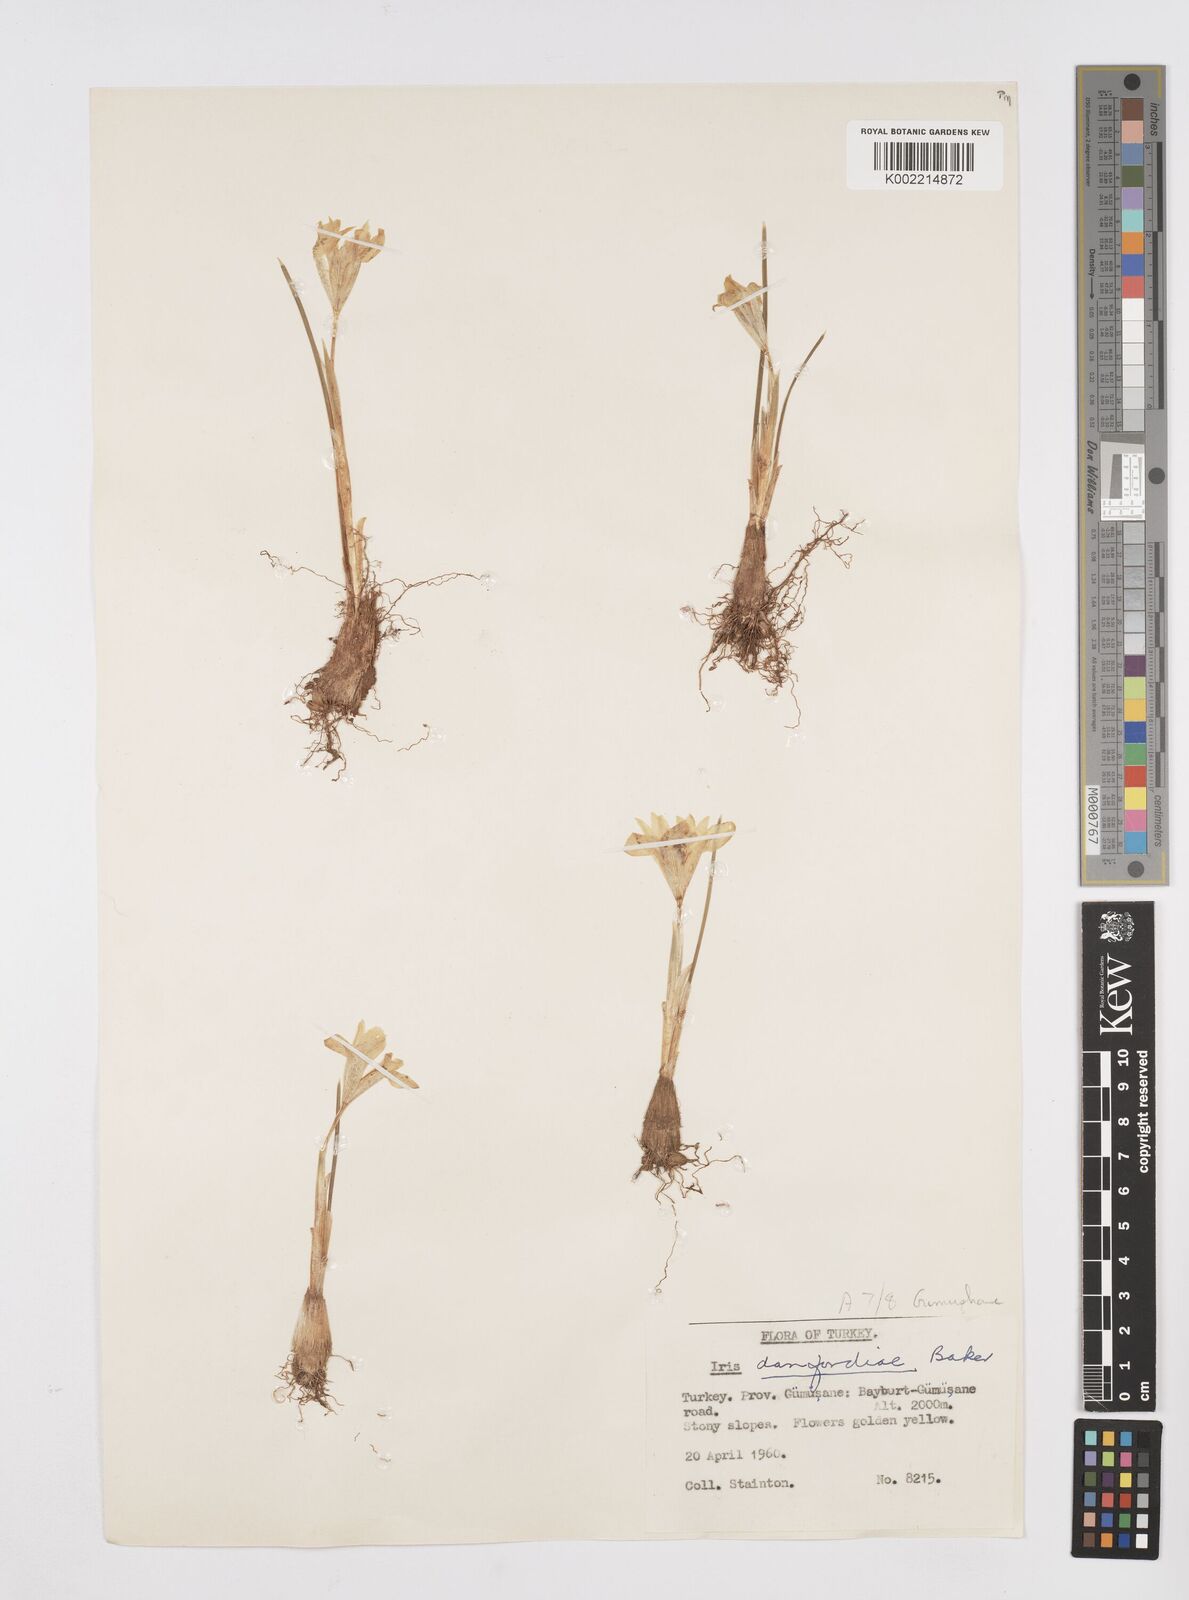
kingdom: Plantae
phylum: Tracheophyta
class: Liliopsida
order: Asparagales
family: Iridaceae
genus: Iris
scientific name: Iris danfordiae
